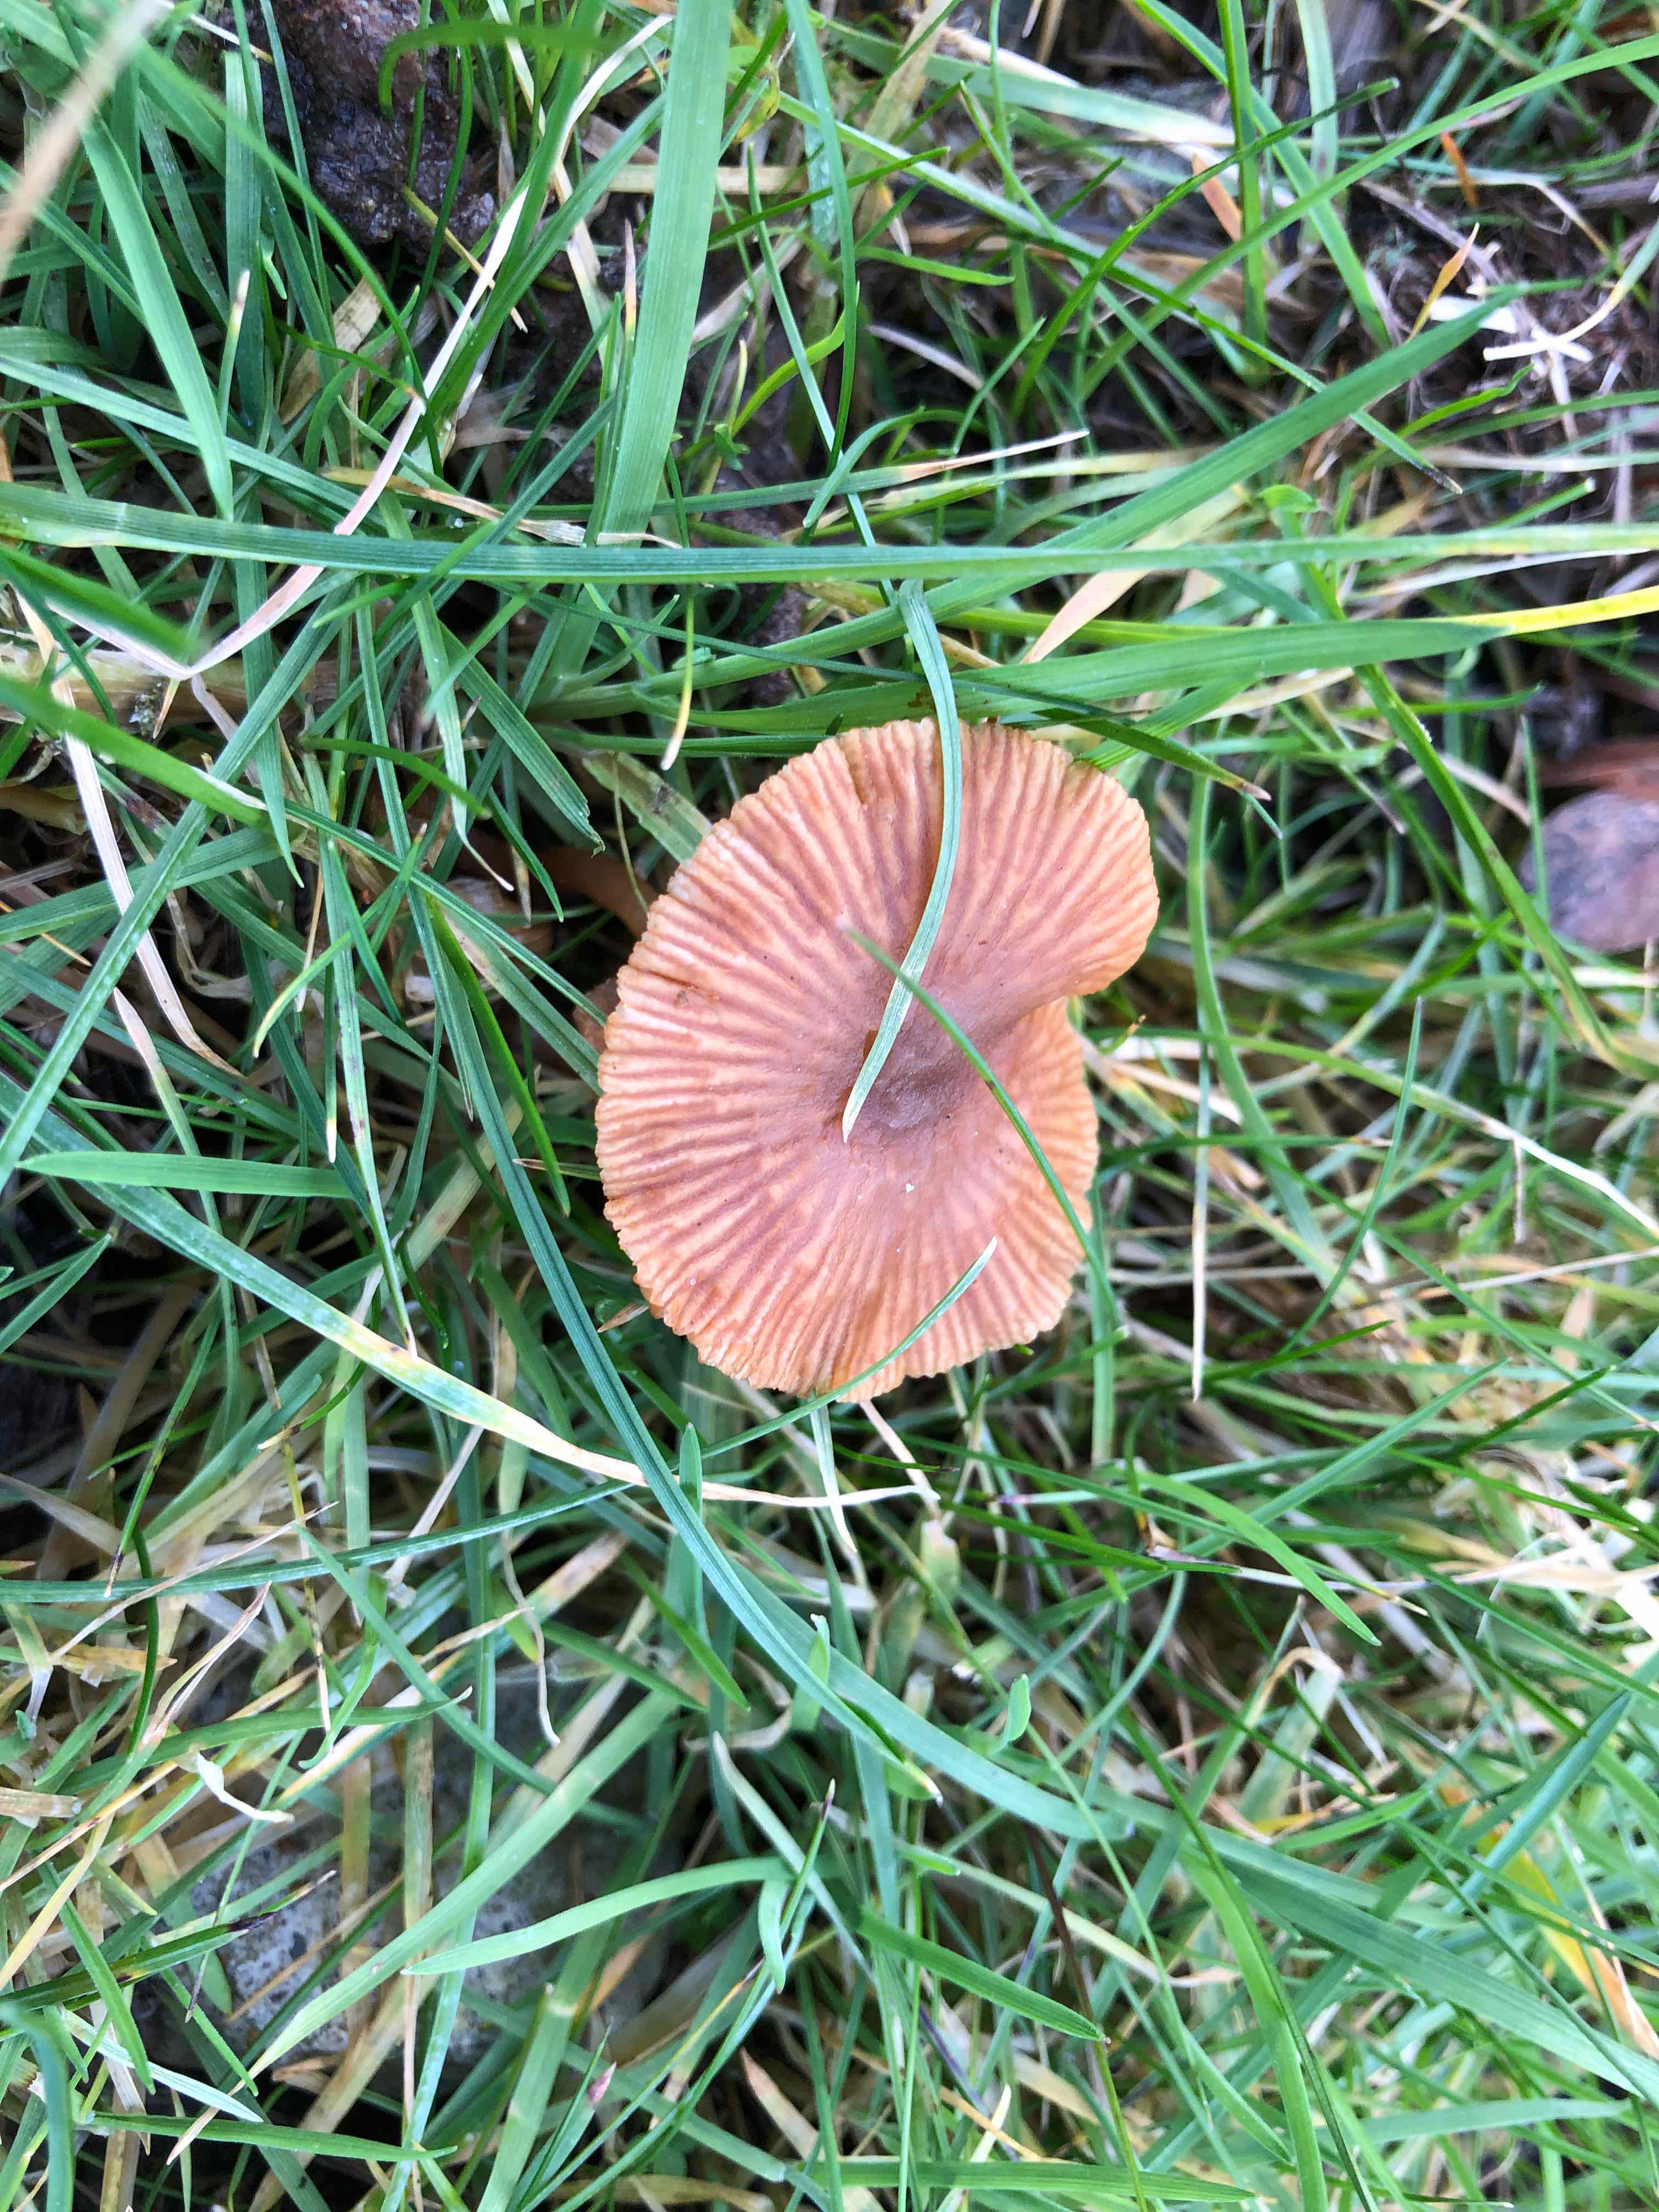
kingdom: Fungi
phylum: Basidiomycota
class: Agaricomycetes
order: Agaricales
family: Tubariaceae
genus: Tubaria
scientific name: Tubaria furfuracea
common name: kliddet fnughat
